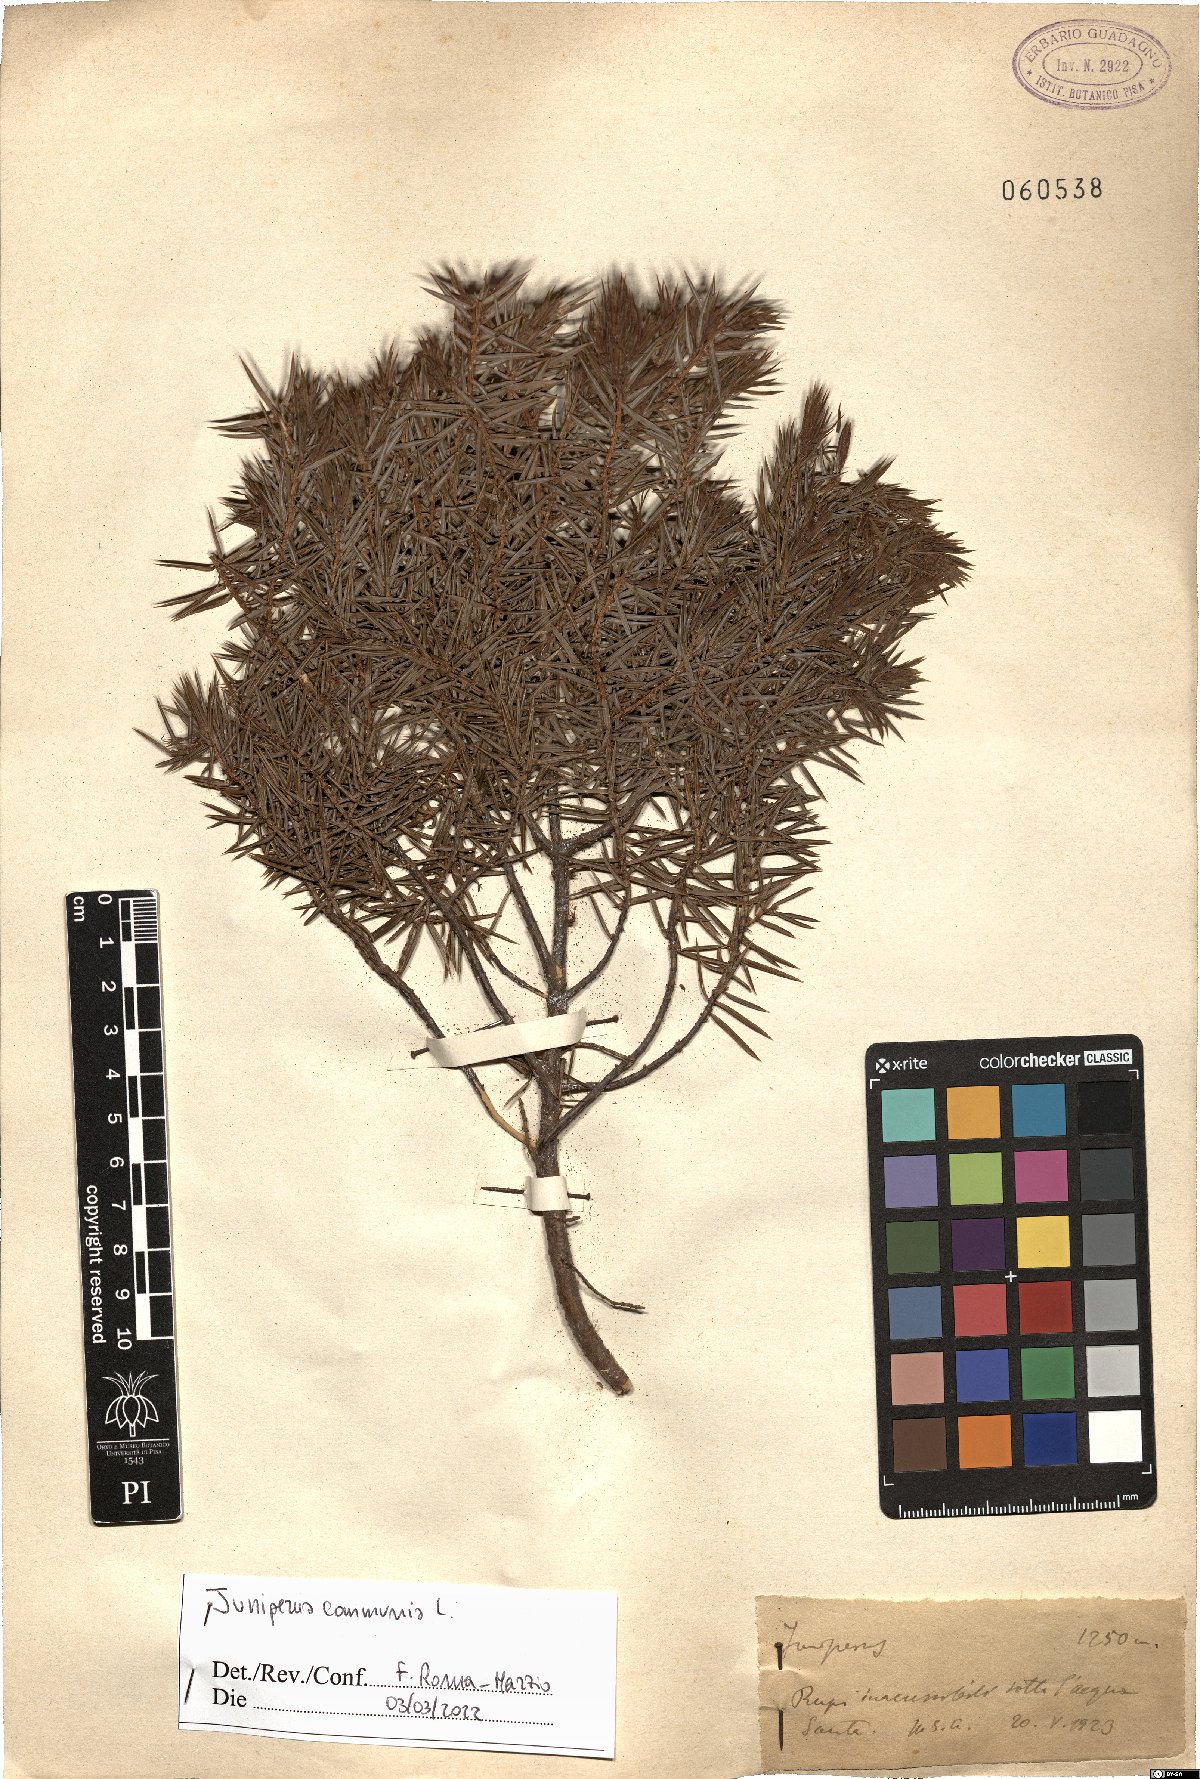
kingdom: Plantae
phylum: Tracheophyta
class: Pinopsida
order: Pinales
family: Cupressaceae
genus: Juniperus
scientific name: Juniperus communis
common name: Common juniper
